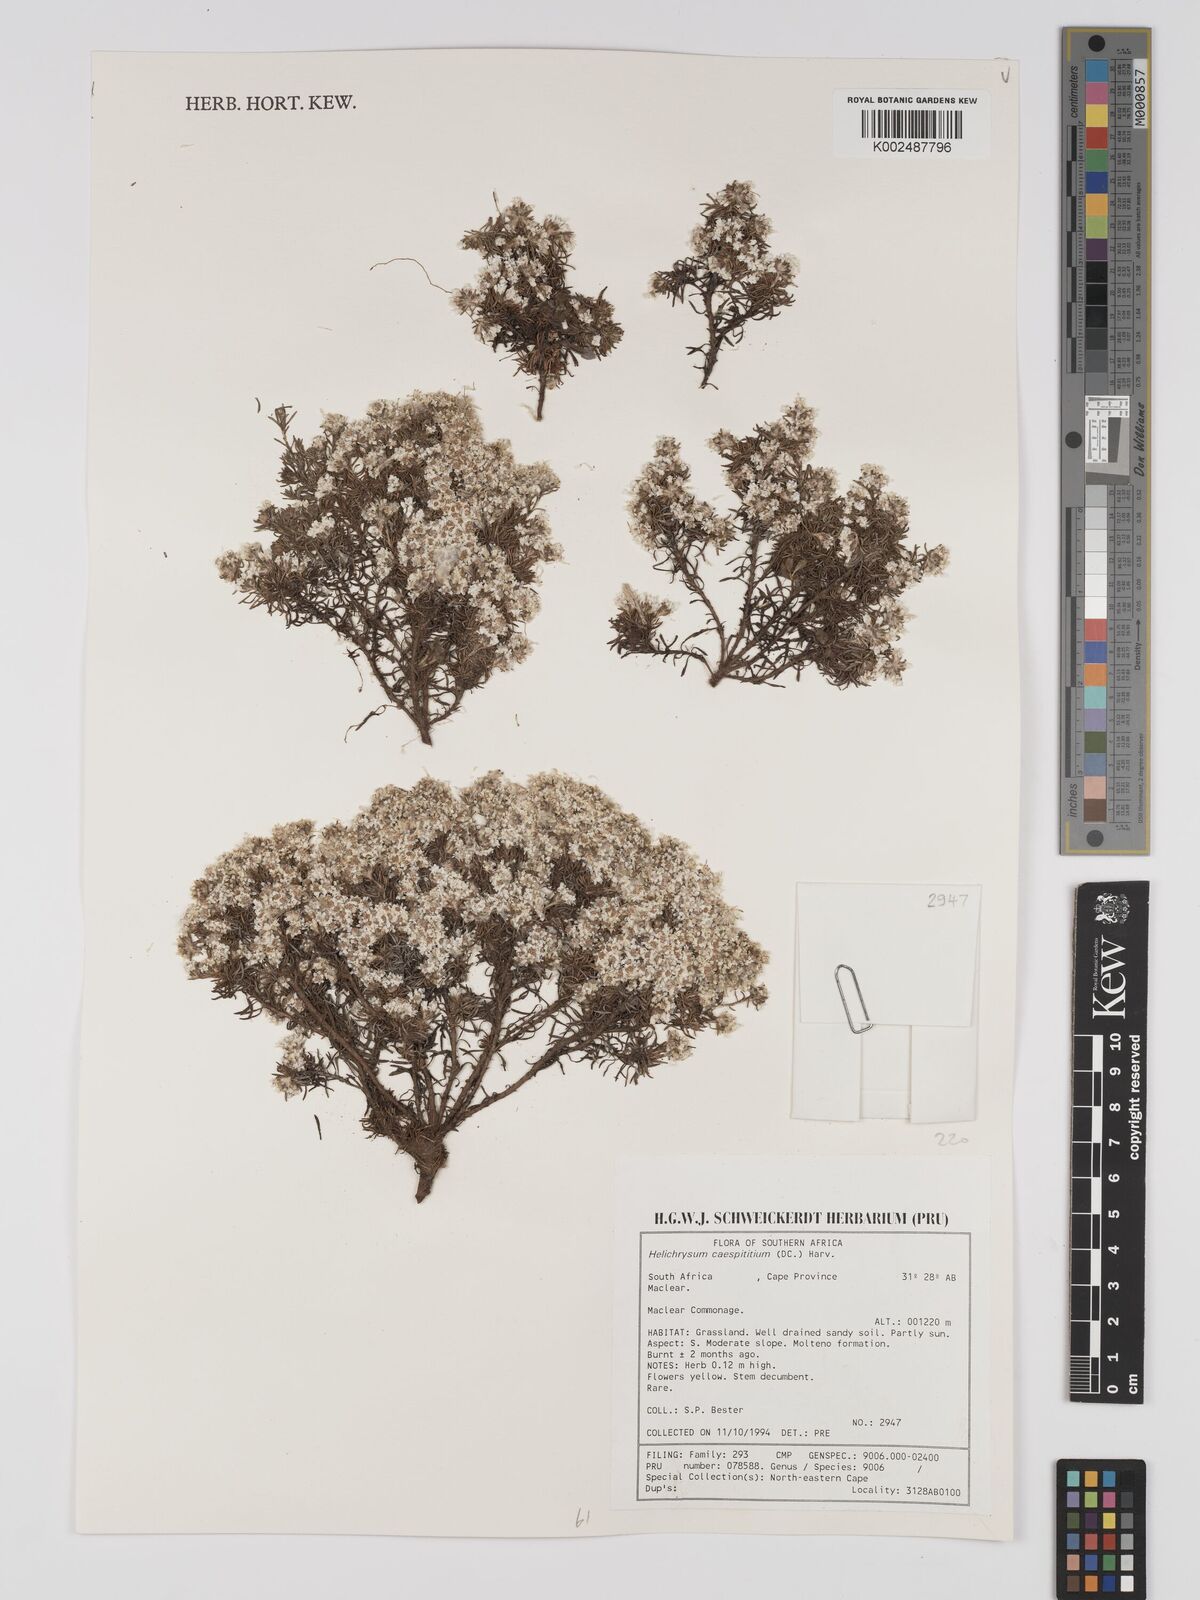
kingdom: Plantae
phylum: Tracheophyta
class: Magnoliopsida
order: Asterales
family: Asteraceae
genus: Helichrysum
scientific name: Helichrysum caespititium
